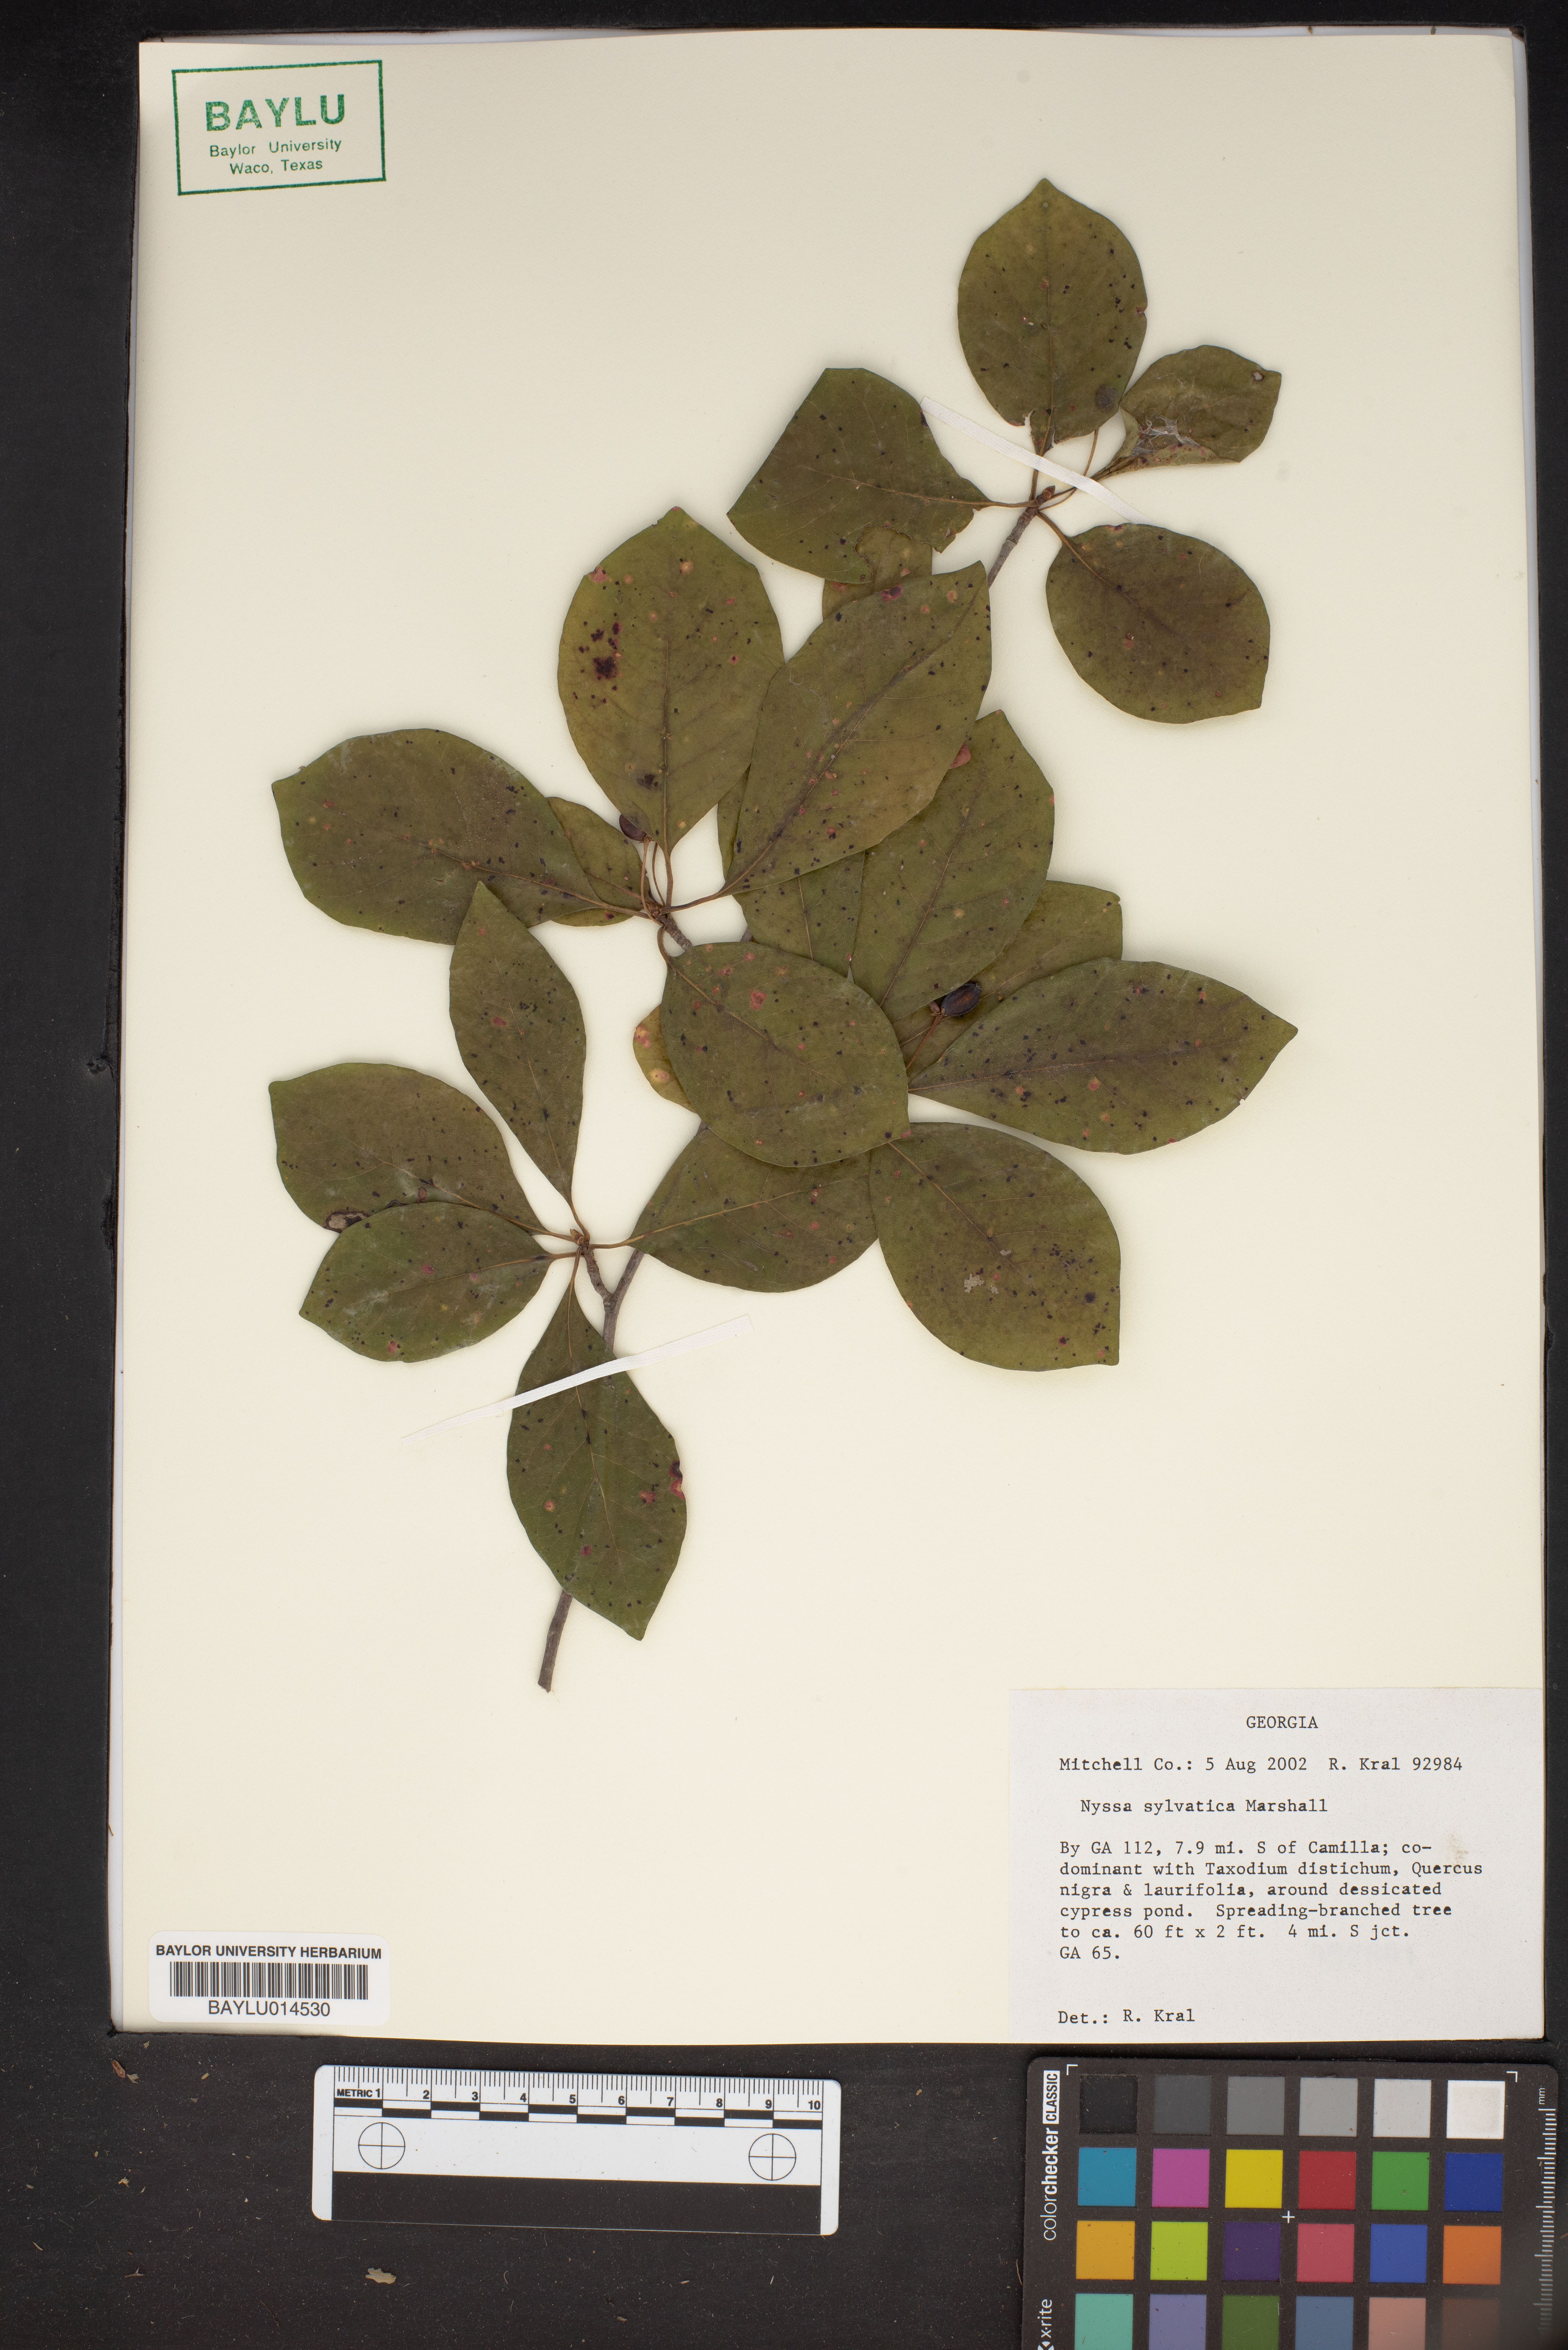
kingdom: Plantae
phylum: Tracheophyta
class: Magnoliopsida
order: Cornales
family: Nyssaceae
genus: Nyssa
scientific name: Nyssa sylvatica
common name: Black tupelo
